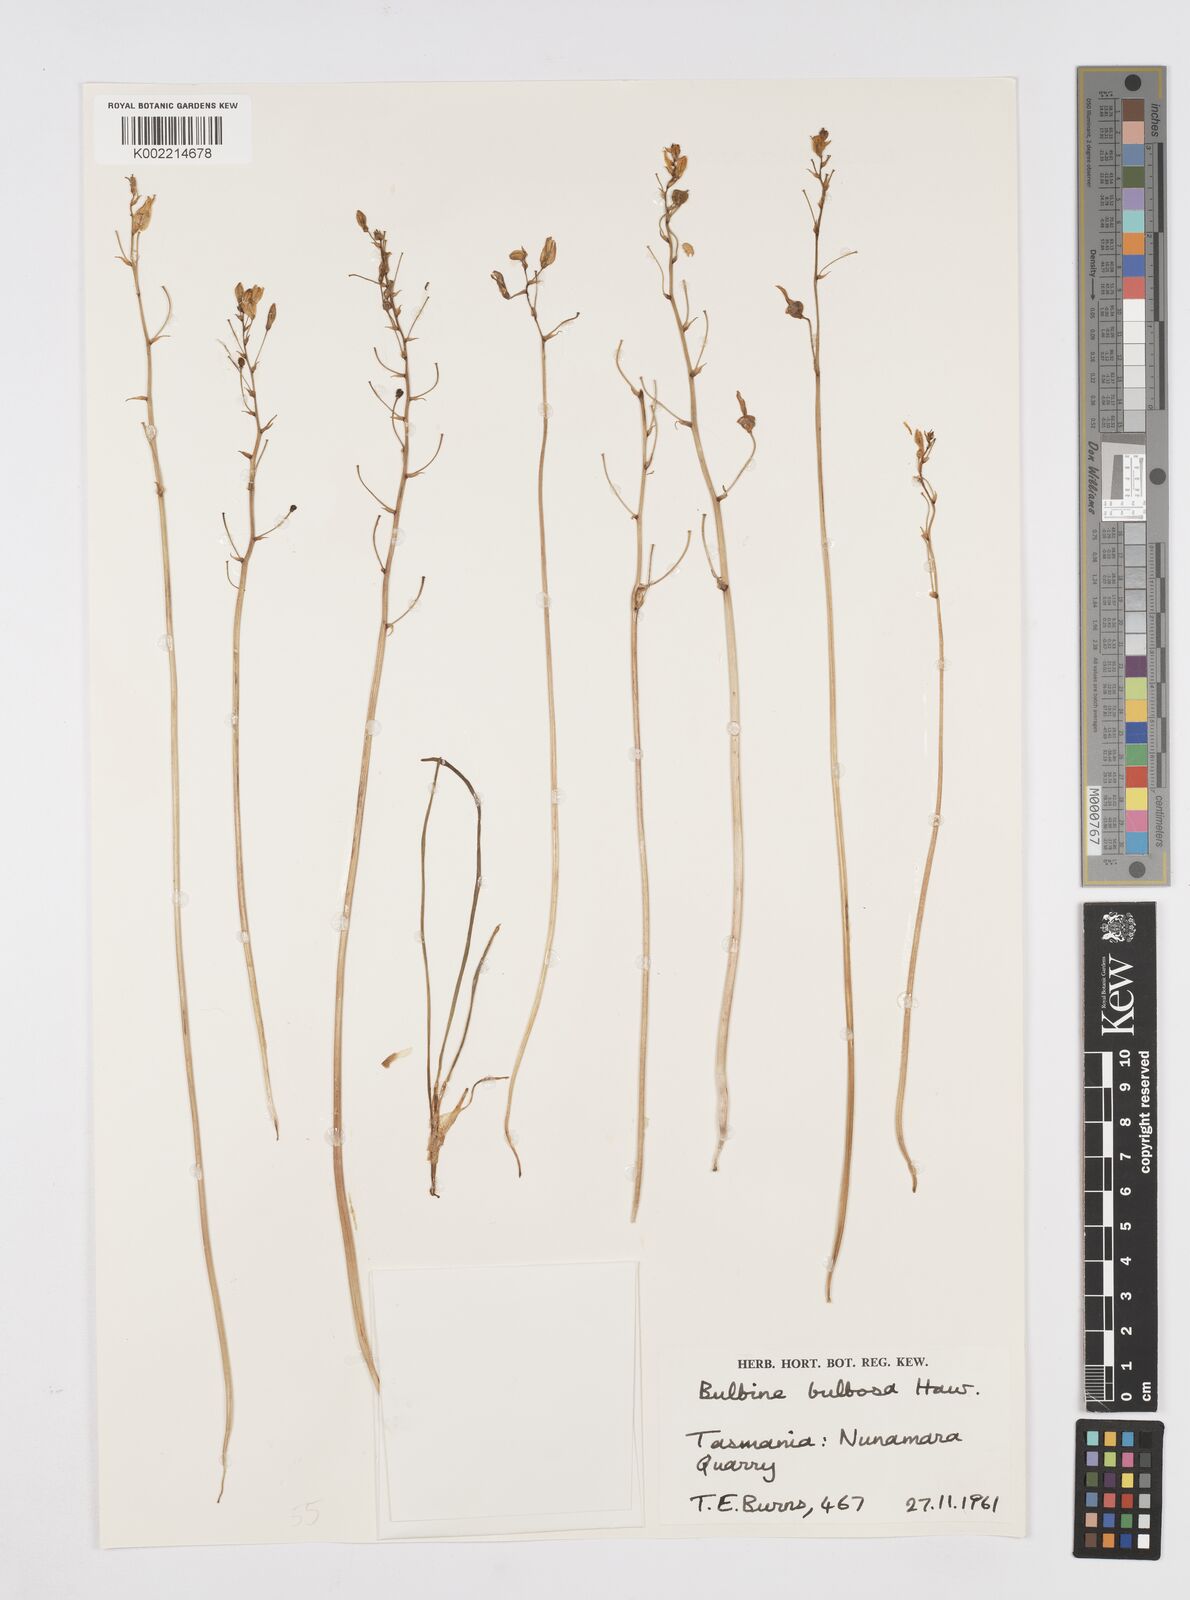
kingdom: Plantae
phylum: Tracheophyta
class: Liliopsida
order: Asparagales
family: Asphodelaceae
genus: Bulbine
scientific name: Bulbine bulbosa
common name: Golden-lily
